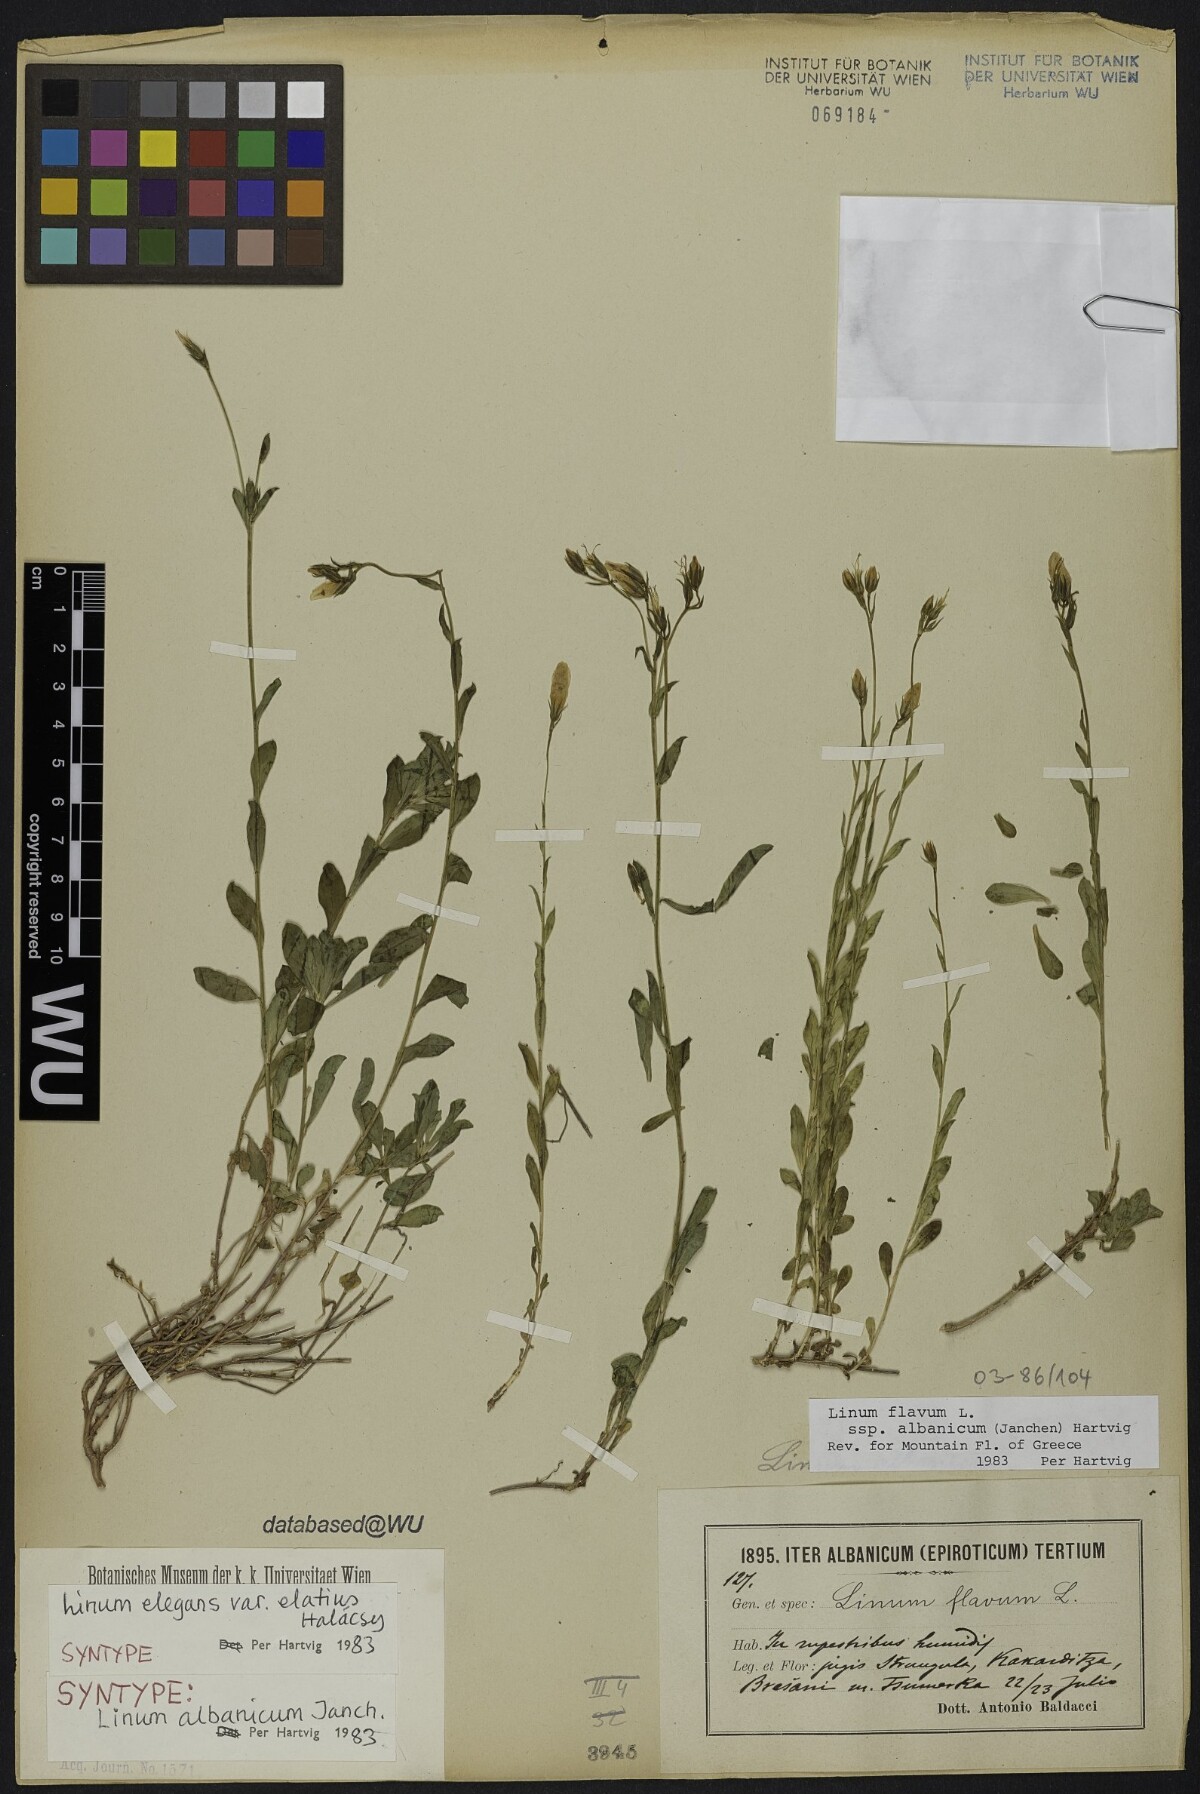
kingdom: Plantae
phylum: Tracheophyta
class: Magnoliopsida
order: Malpighiales
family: Linaceae
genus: Linum
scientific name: Linum flavum
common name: Yellow flax
